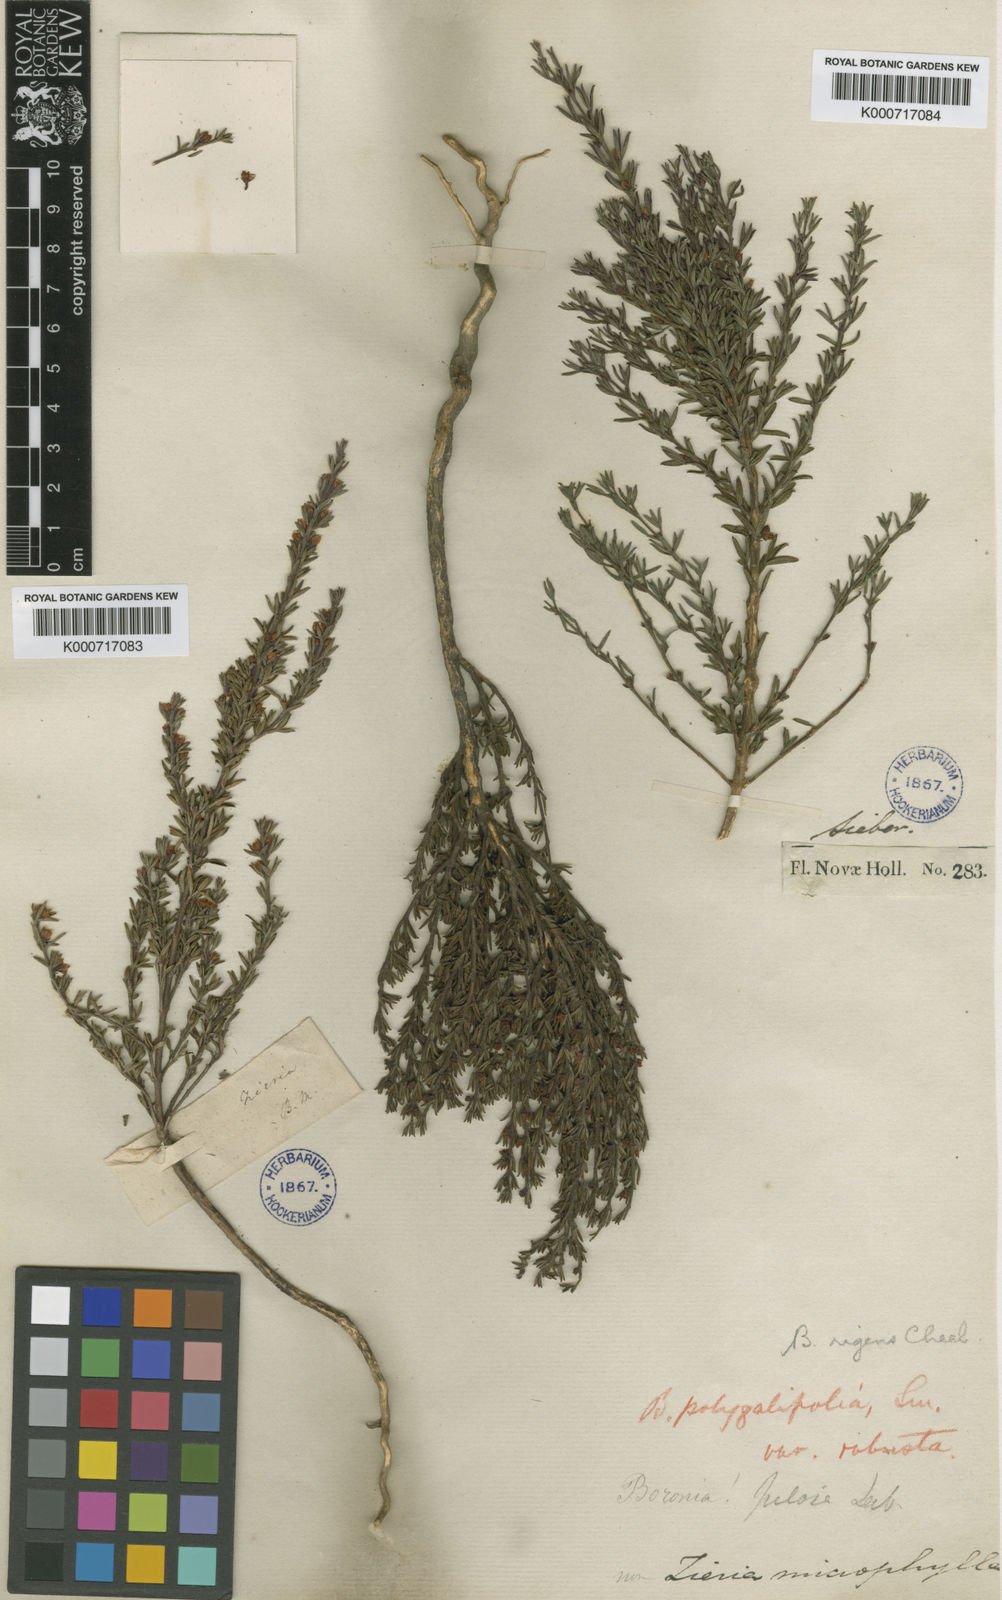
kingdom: Plantae
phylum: Tracheophyta
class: Magnoliopsida
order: Sapindales
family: Rutaceae
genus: Cyanothamnus
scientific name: Cyanothamnus rigens
